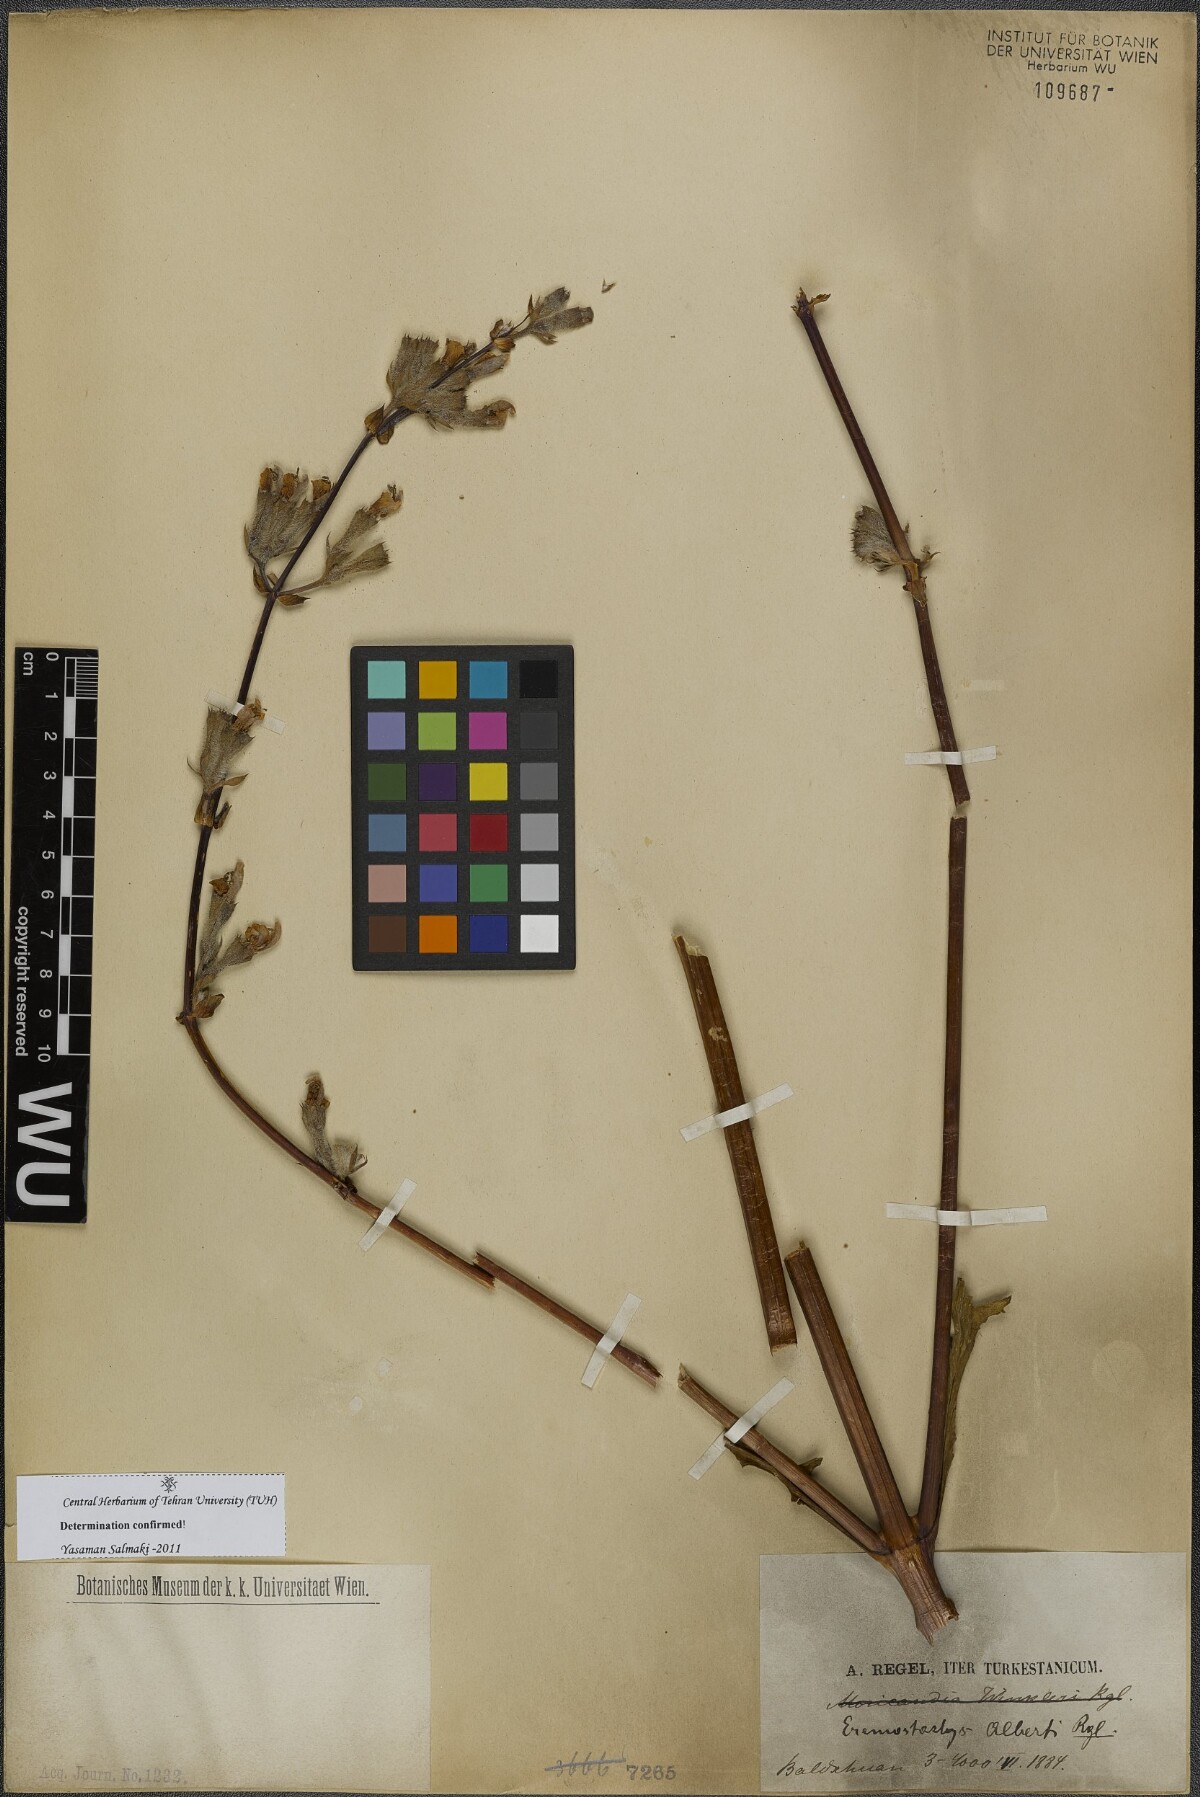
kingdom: Plantae
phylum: Tracheophyta
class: Magnoliopsida
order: Lamiales
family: Lamiaceae
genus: Phlomoides
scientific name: Phlomoides alberti
